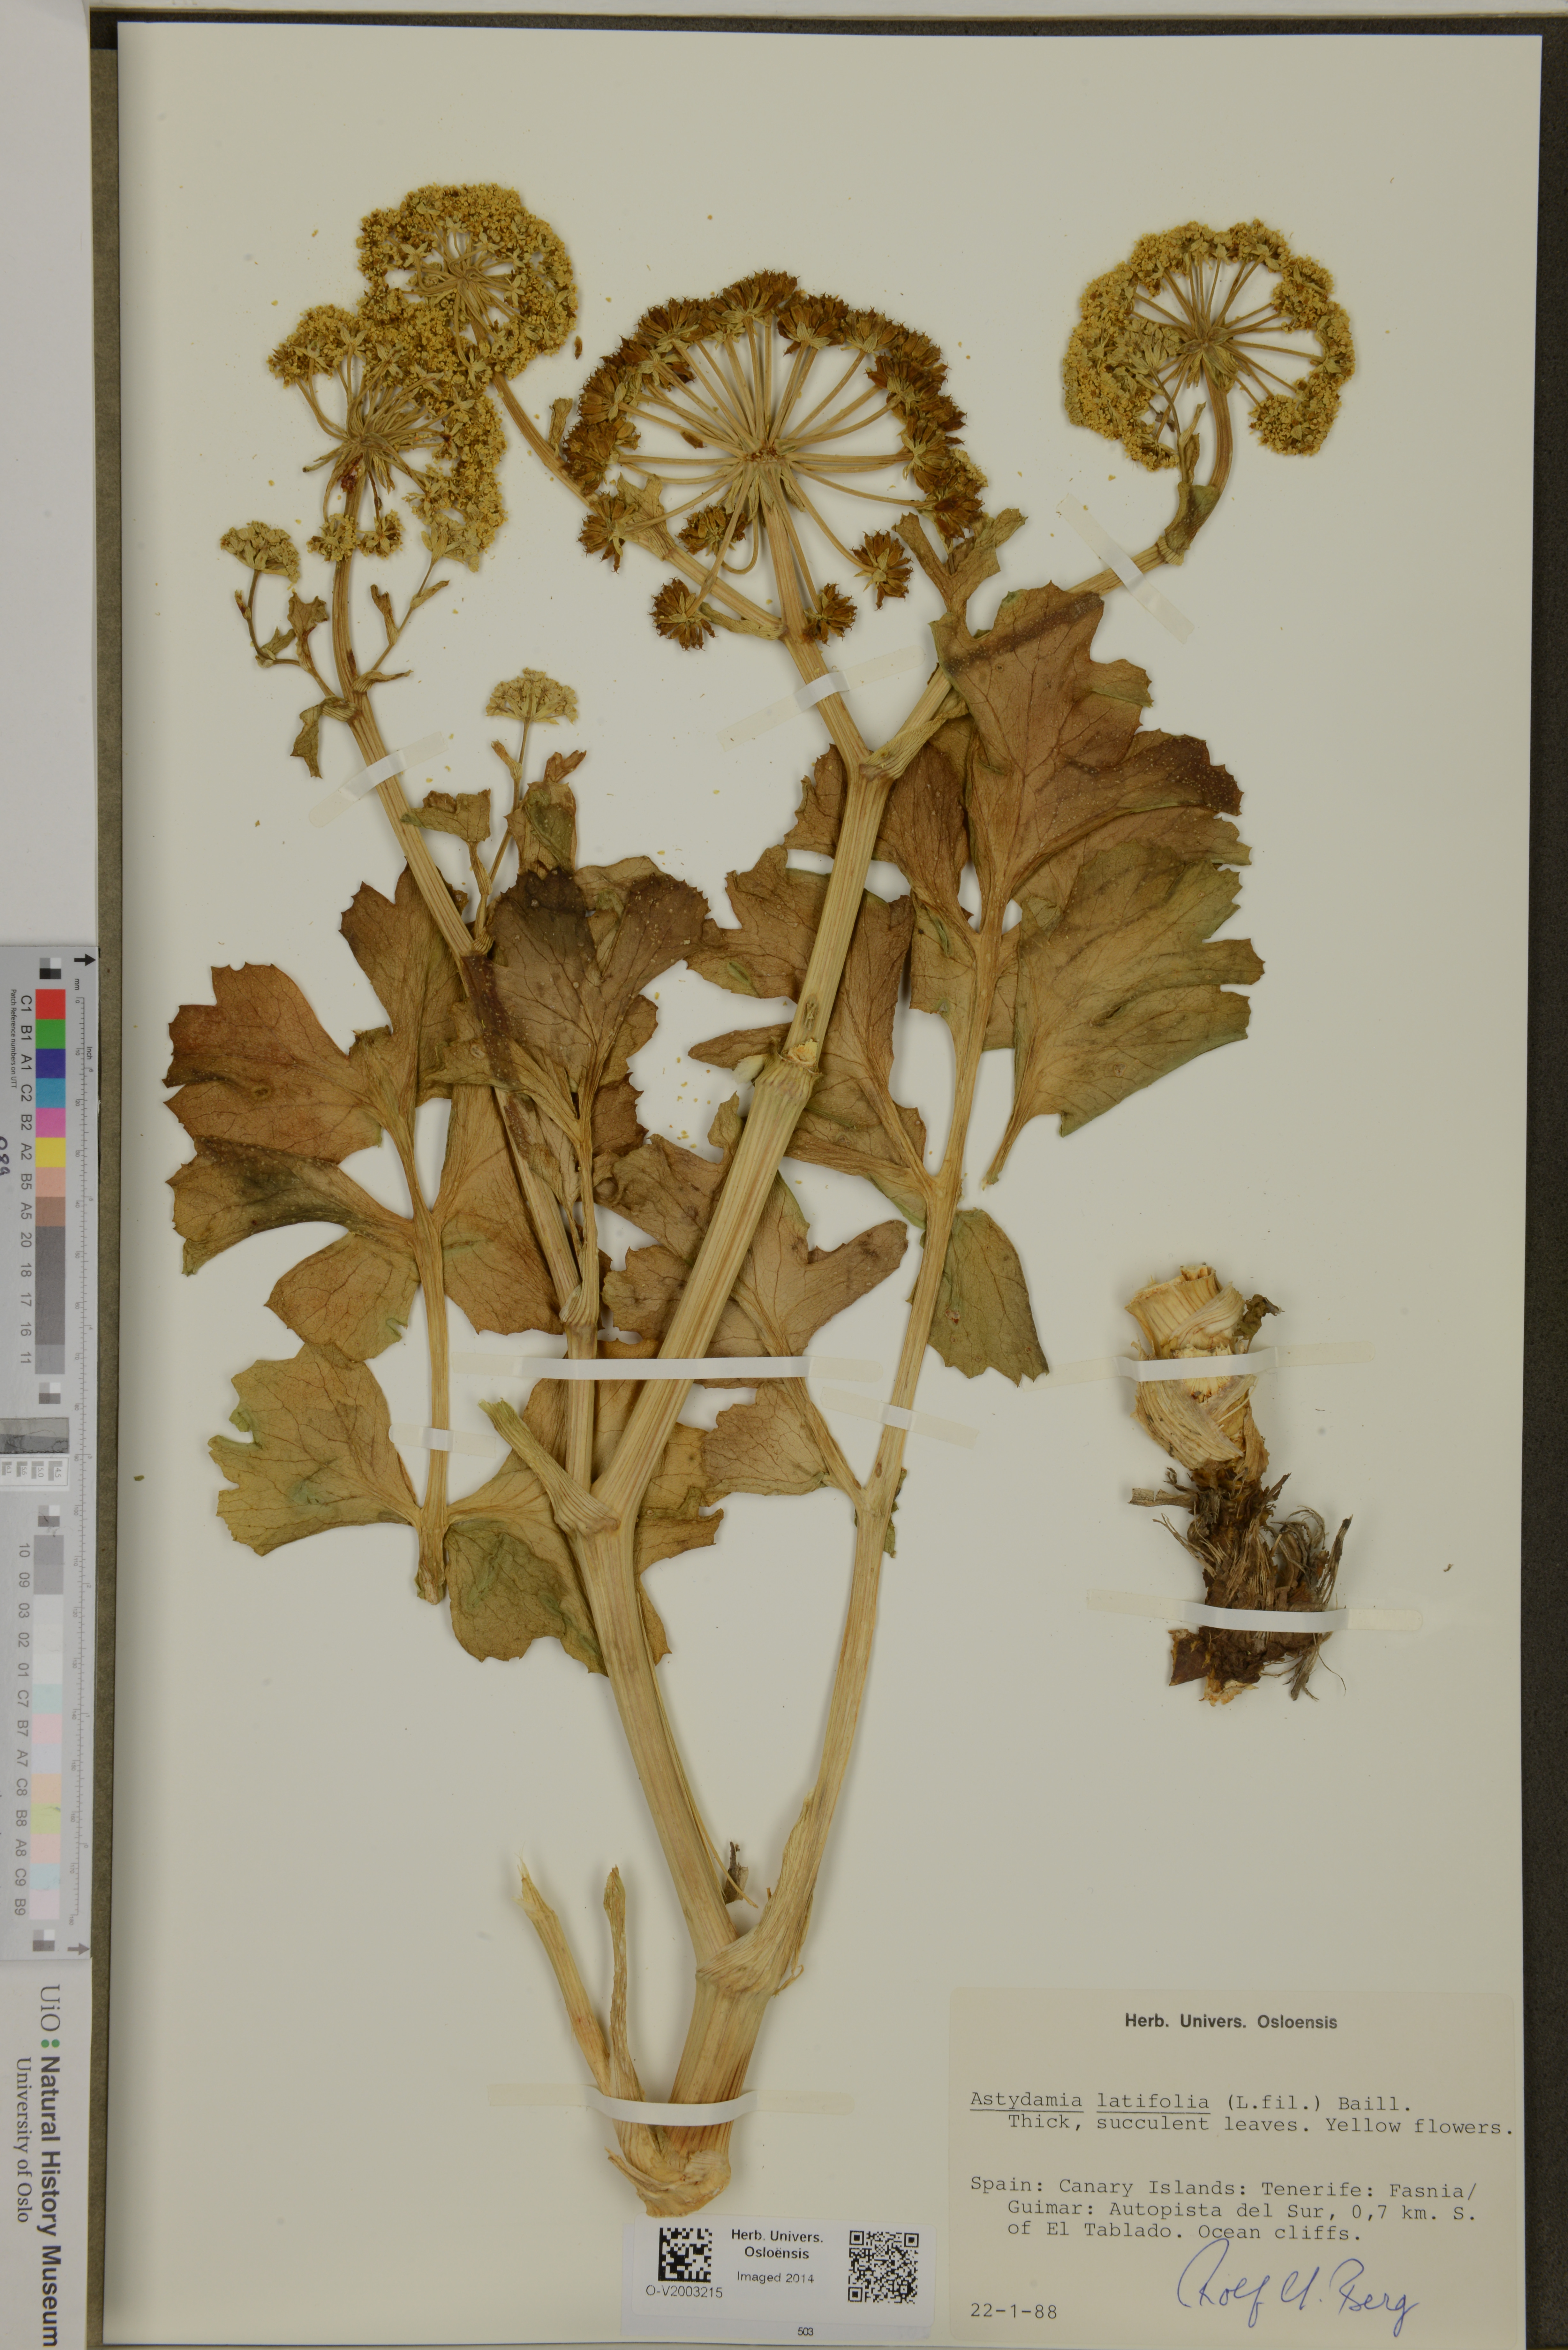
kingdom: Plantae
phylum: Tracheophyta
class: Magnoliopsida
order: Apiales
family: Apiaceae
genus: Astydamia
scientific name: Astydamia latifolia
